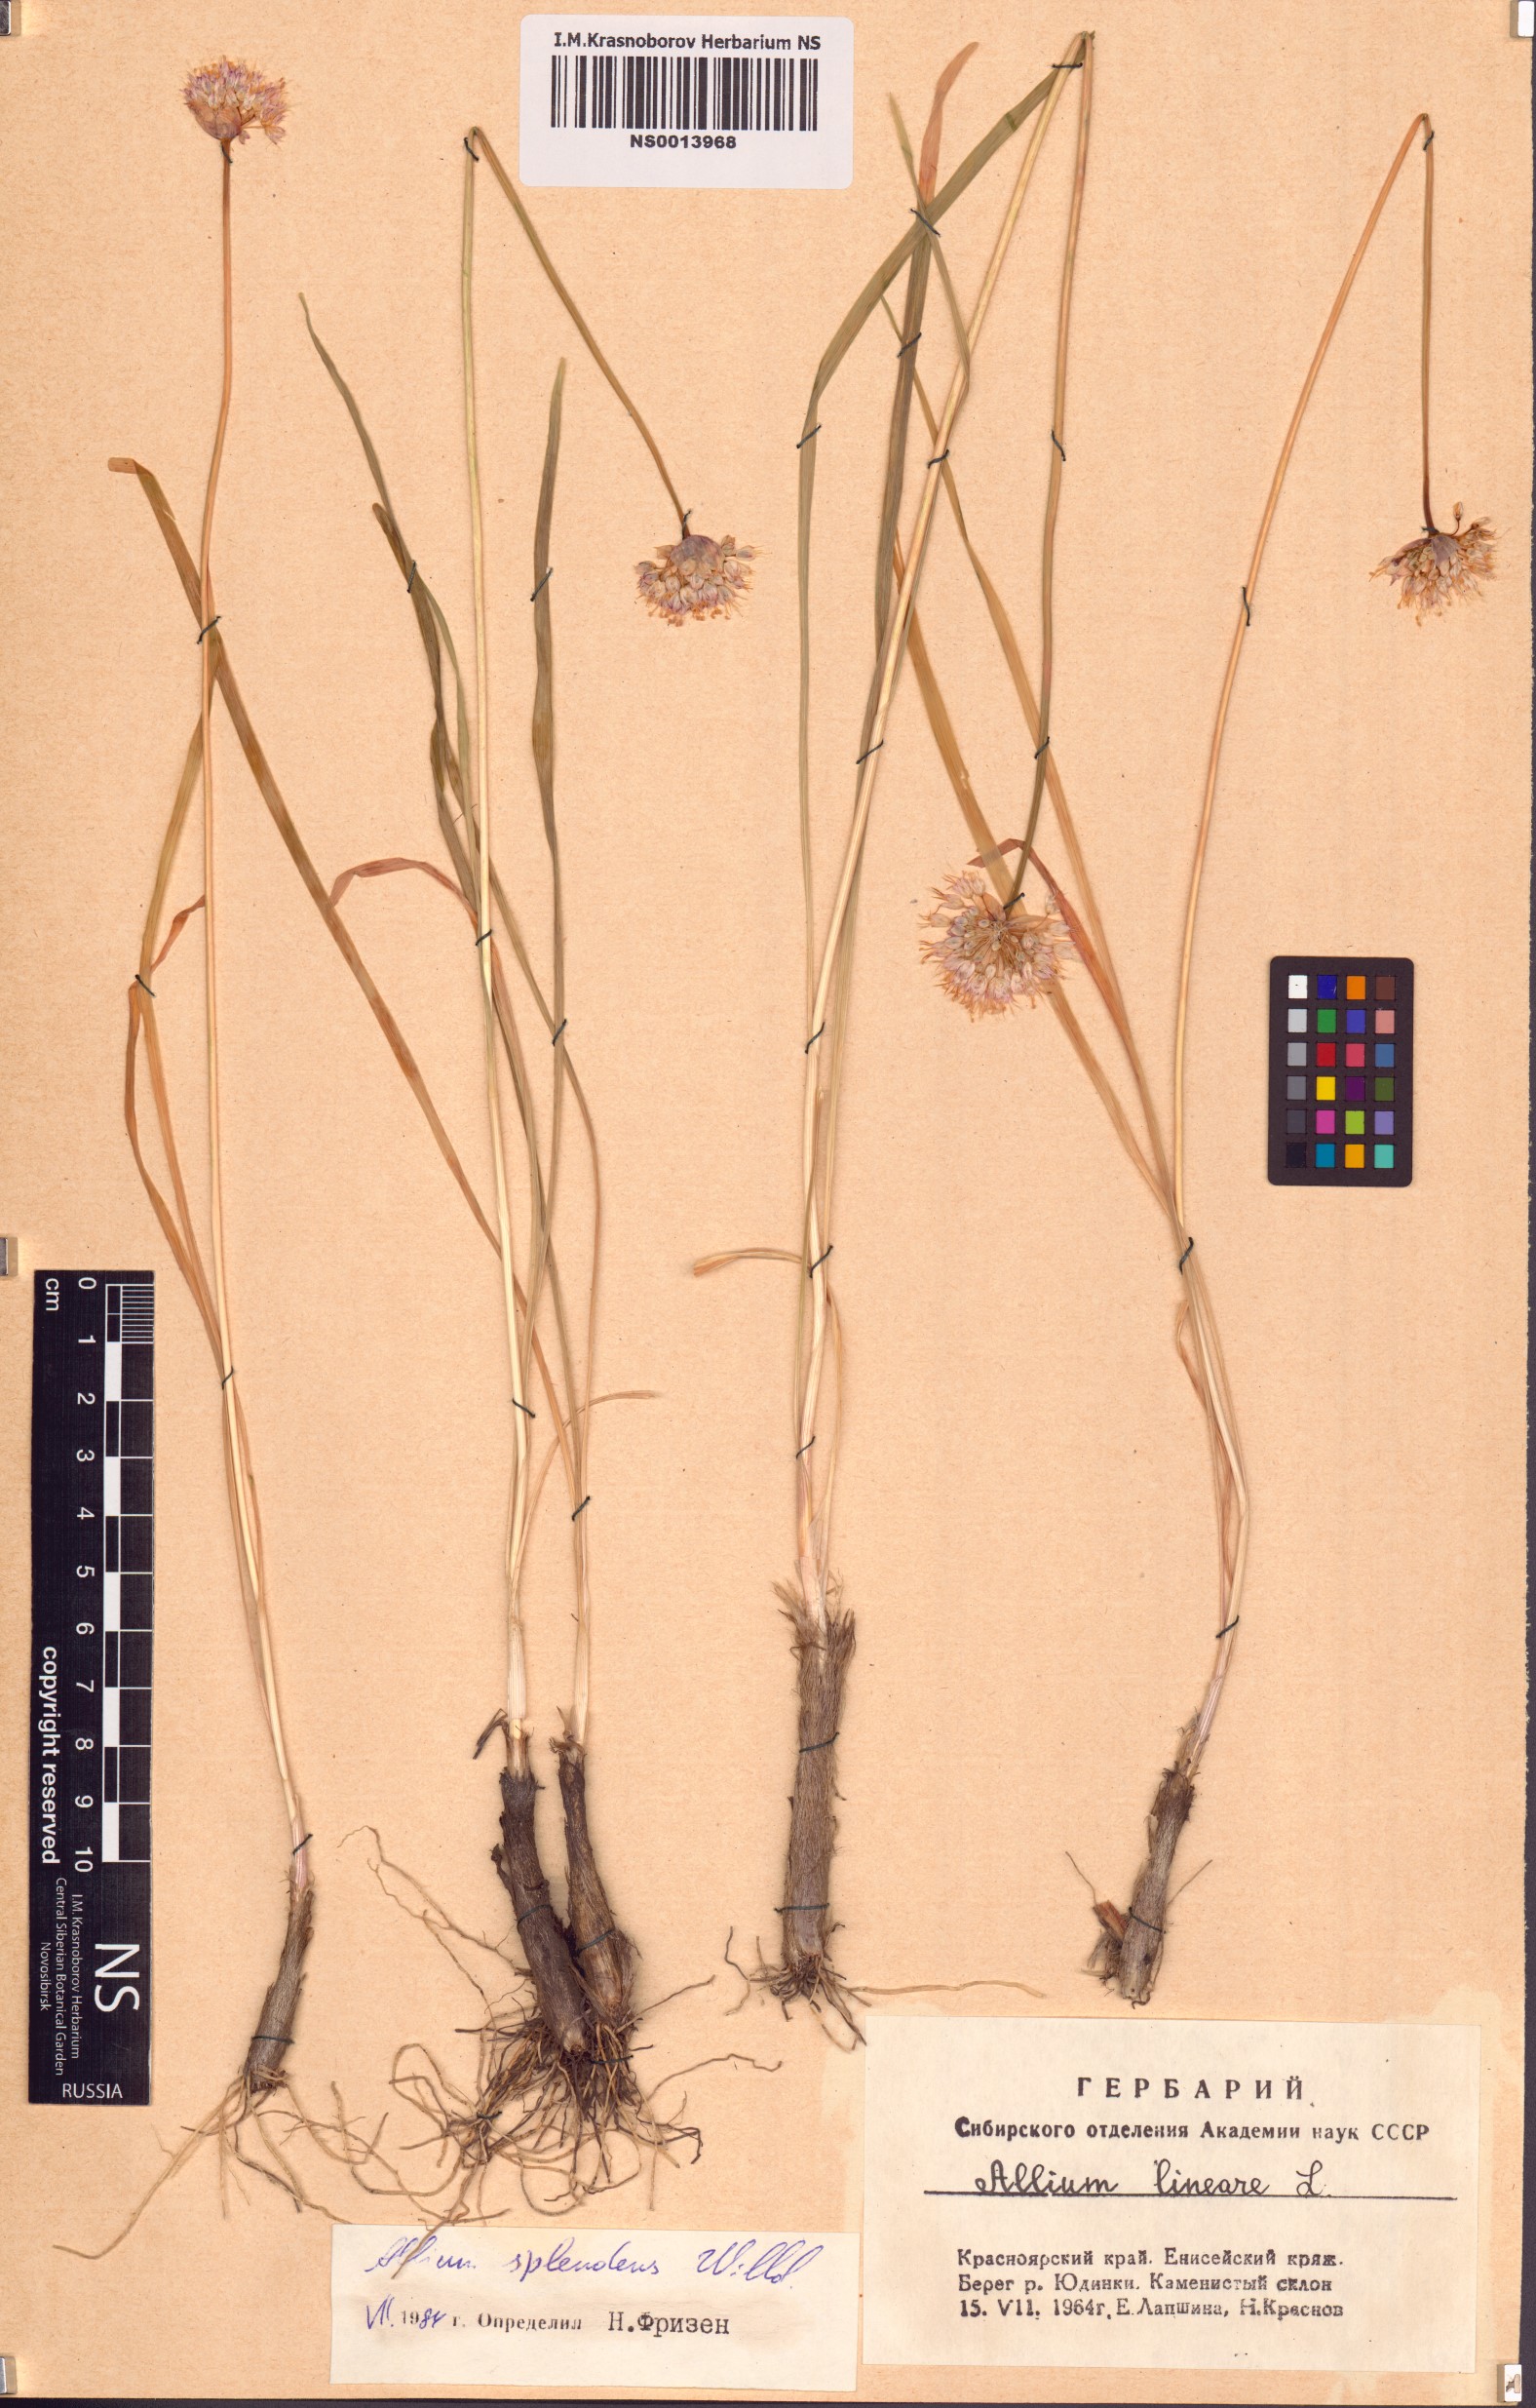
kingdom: Plantae
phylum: Tracheophyta
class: Liliopsida
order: Asparagales
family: Amaryllidaceae
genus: Allium
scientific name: Allium splendens
